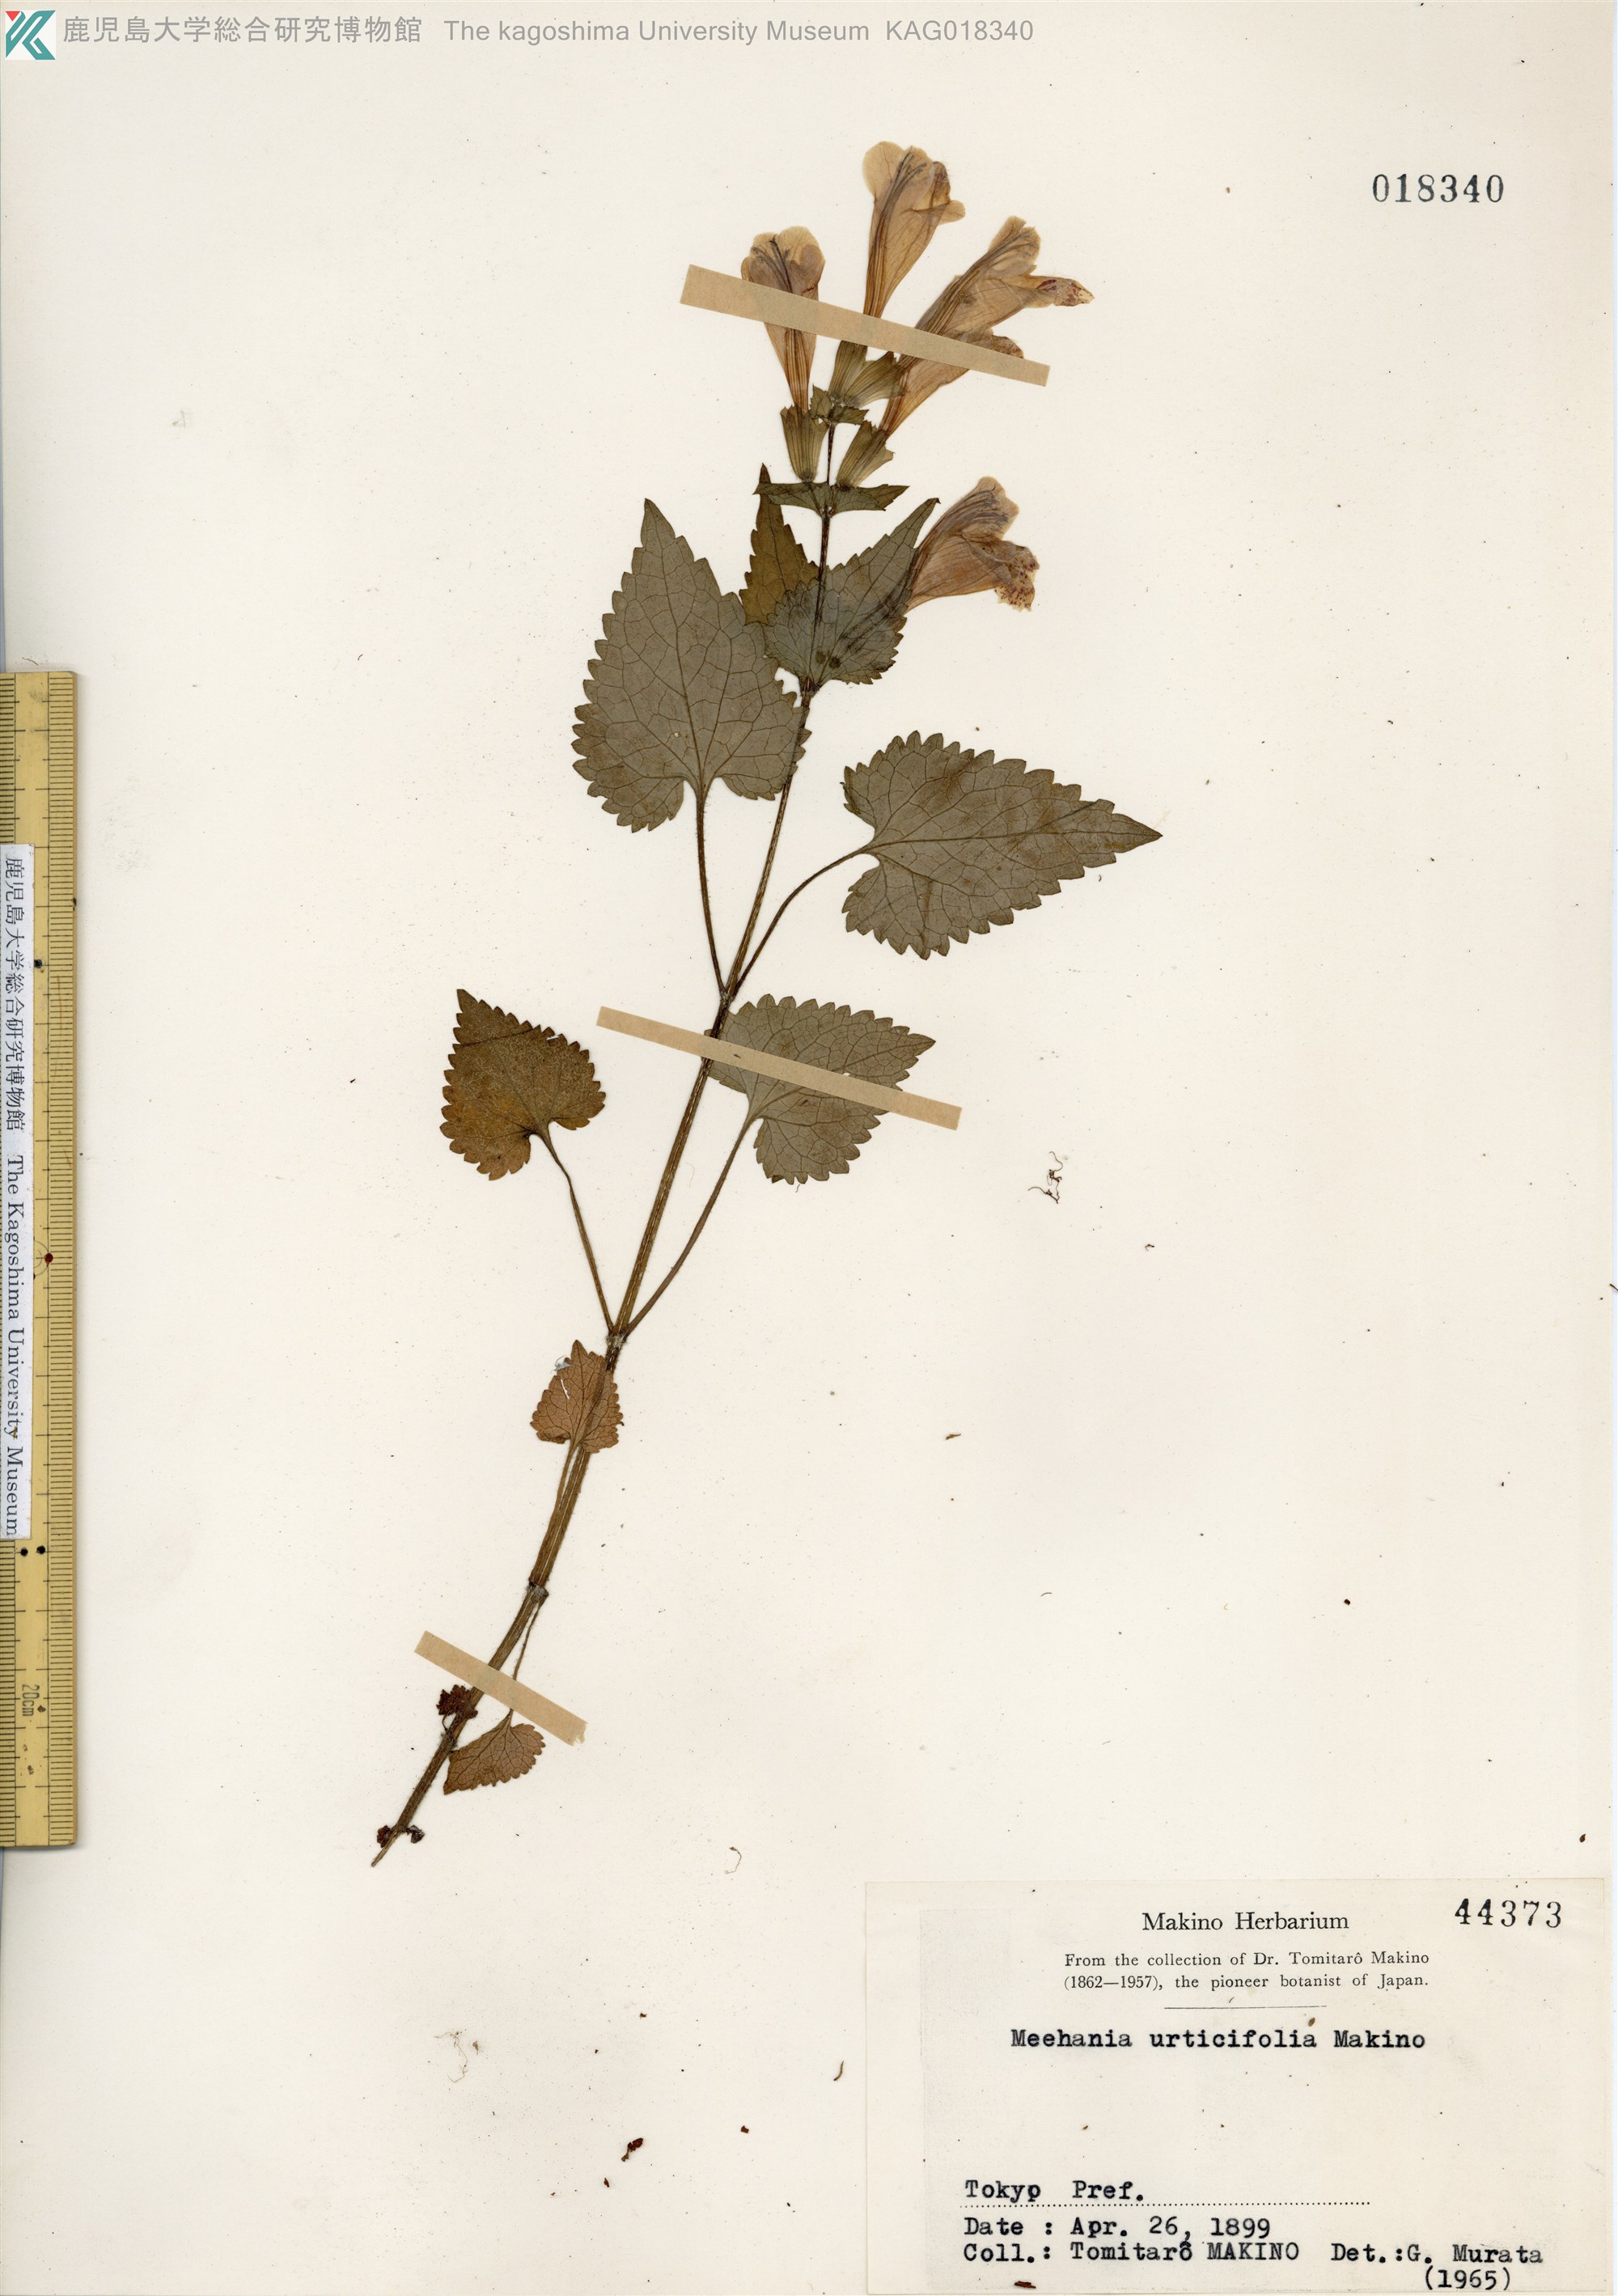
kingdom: Plantae
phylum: Tracheophyta
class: Magnoliopsida
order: Lamiales
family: Lamiaceae
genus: Meehania
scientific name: Meehania urticifolia
